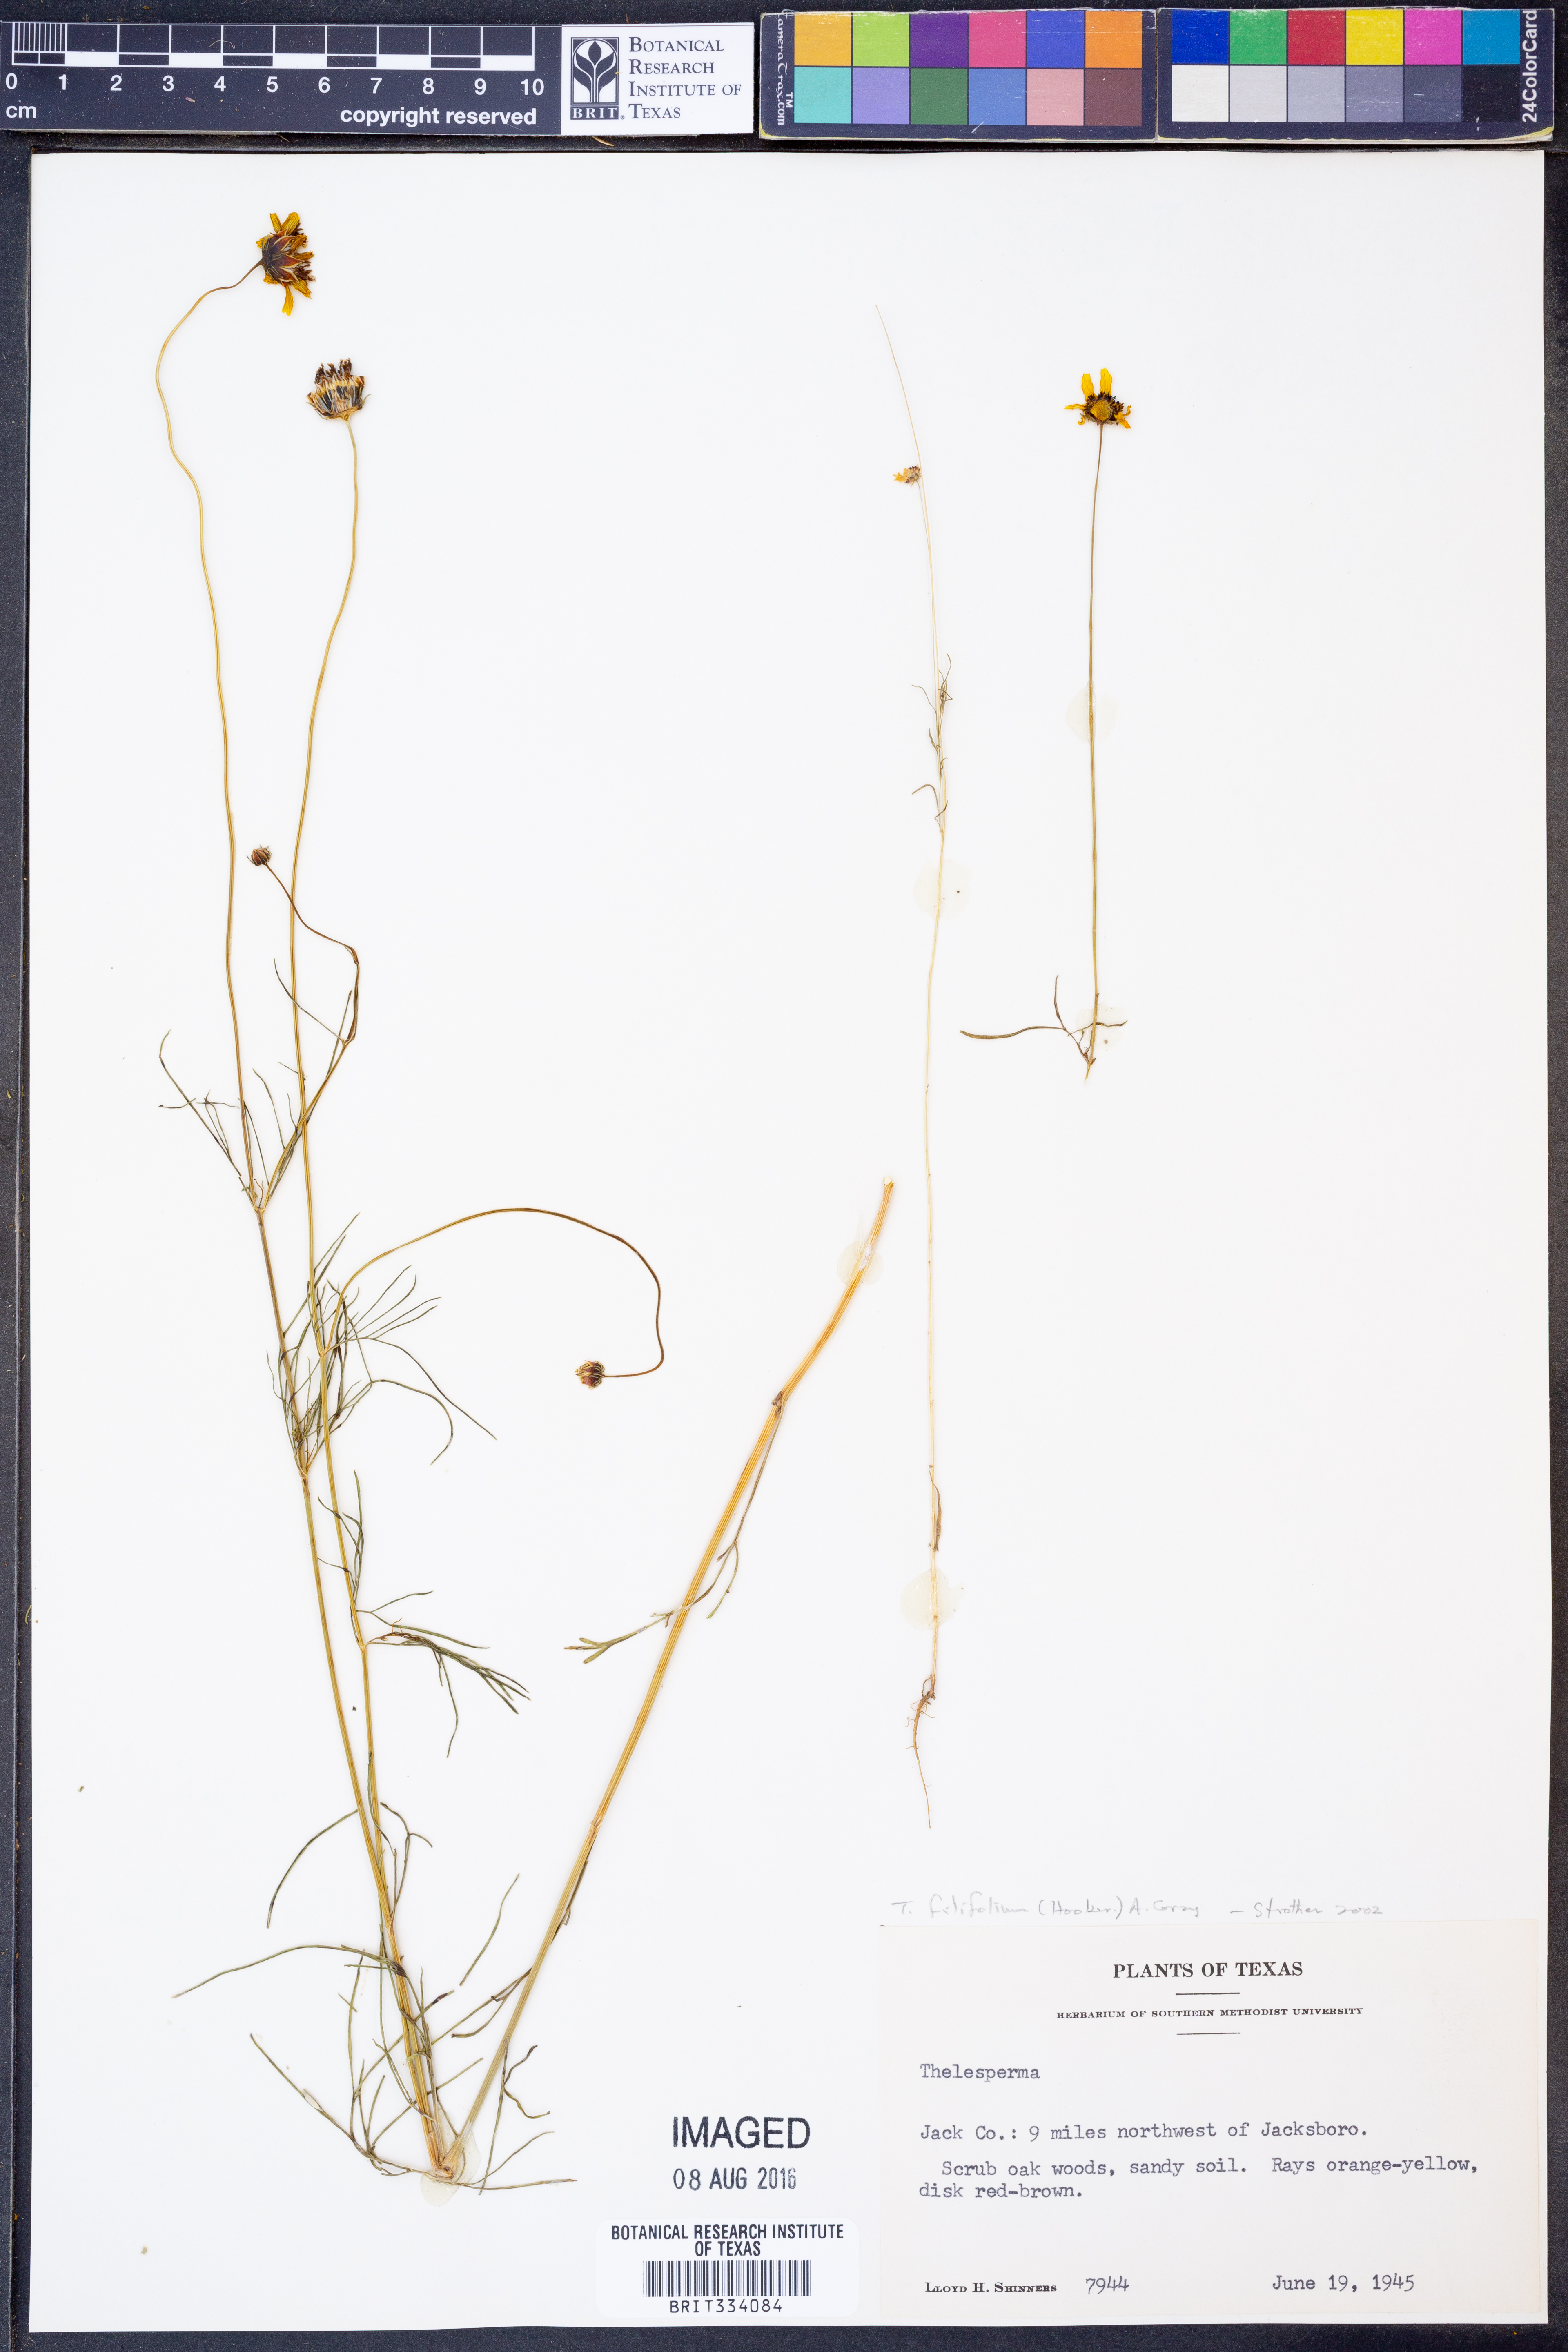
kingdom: Plantae
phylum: Tracheophyta
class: Magnoliopsida
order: Asterales
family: Asteraceae
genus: Thelesperma
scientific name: Thelesperma filifolium
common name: Stiff greenthread
